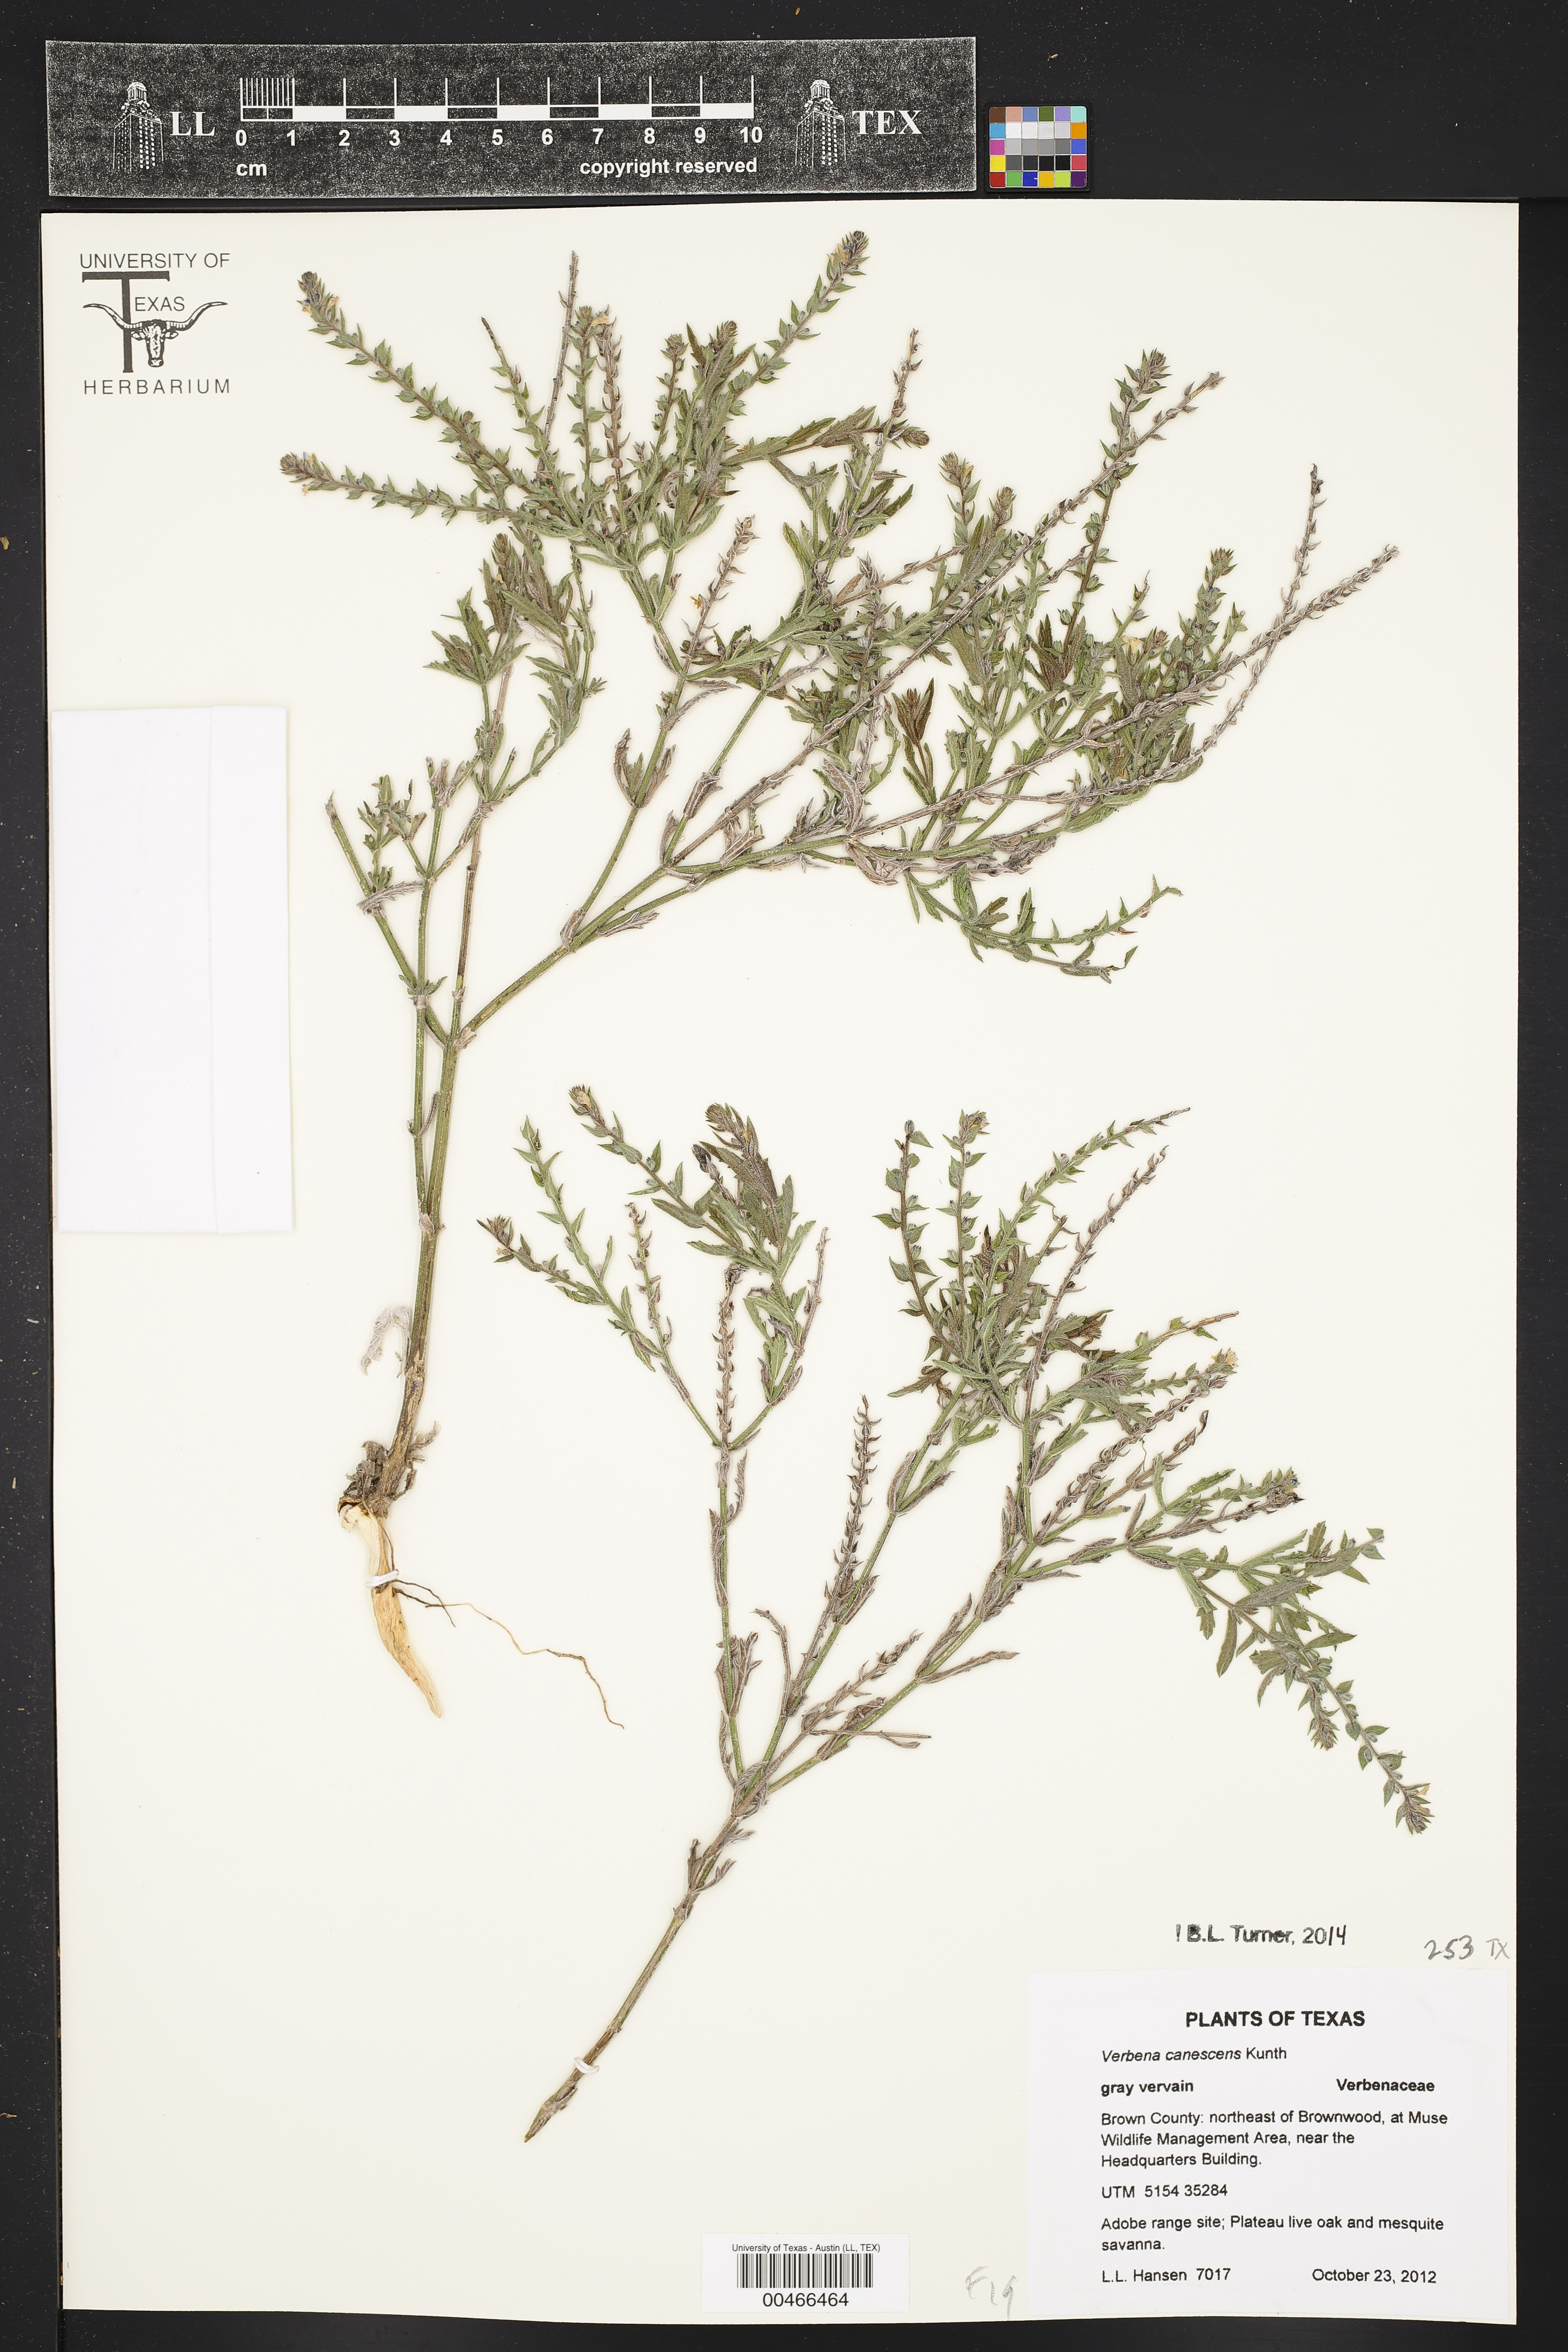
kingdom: Plantae
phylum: Tracheophyta
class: Magnoliopsida
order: Lamiales
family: Verbenaceae
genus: Verbena
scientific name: Verbena canescens
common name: Gray vervain
